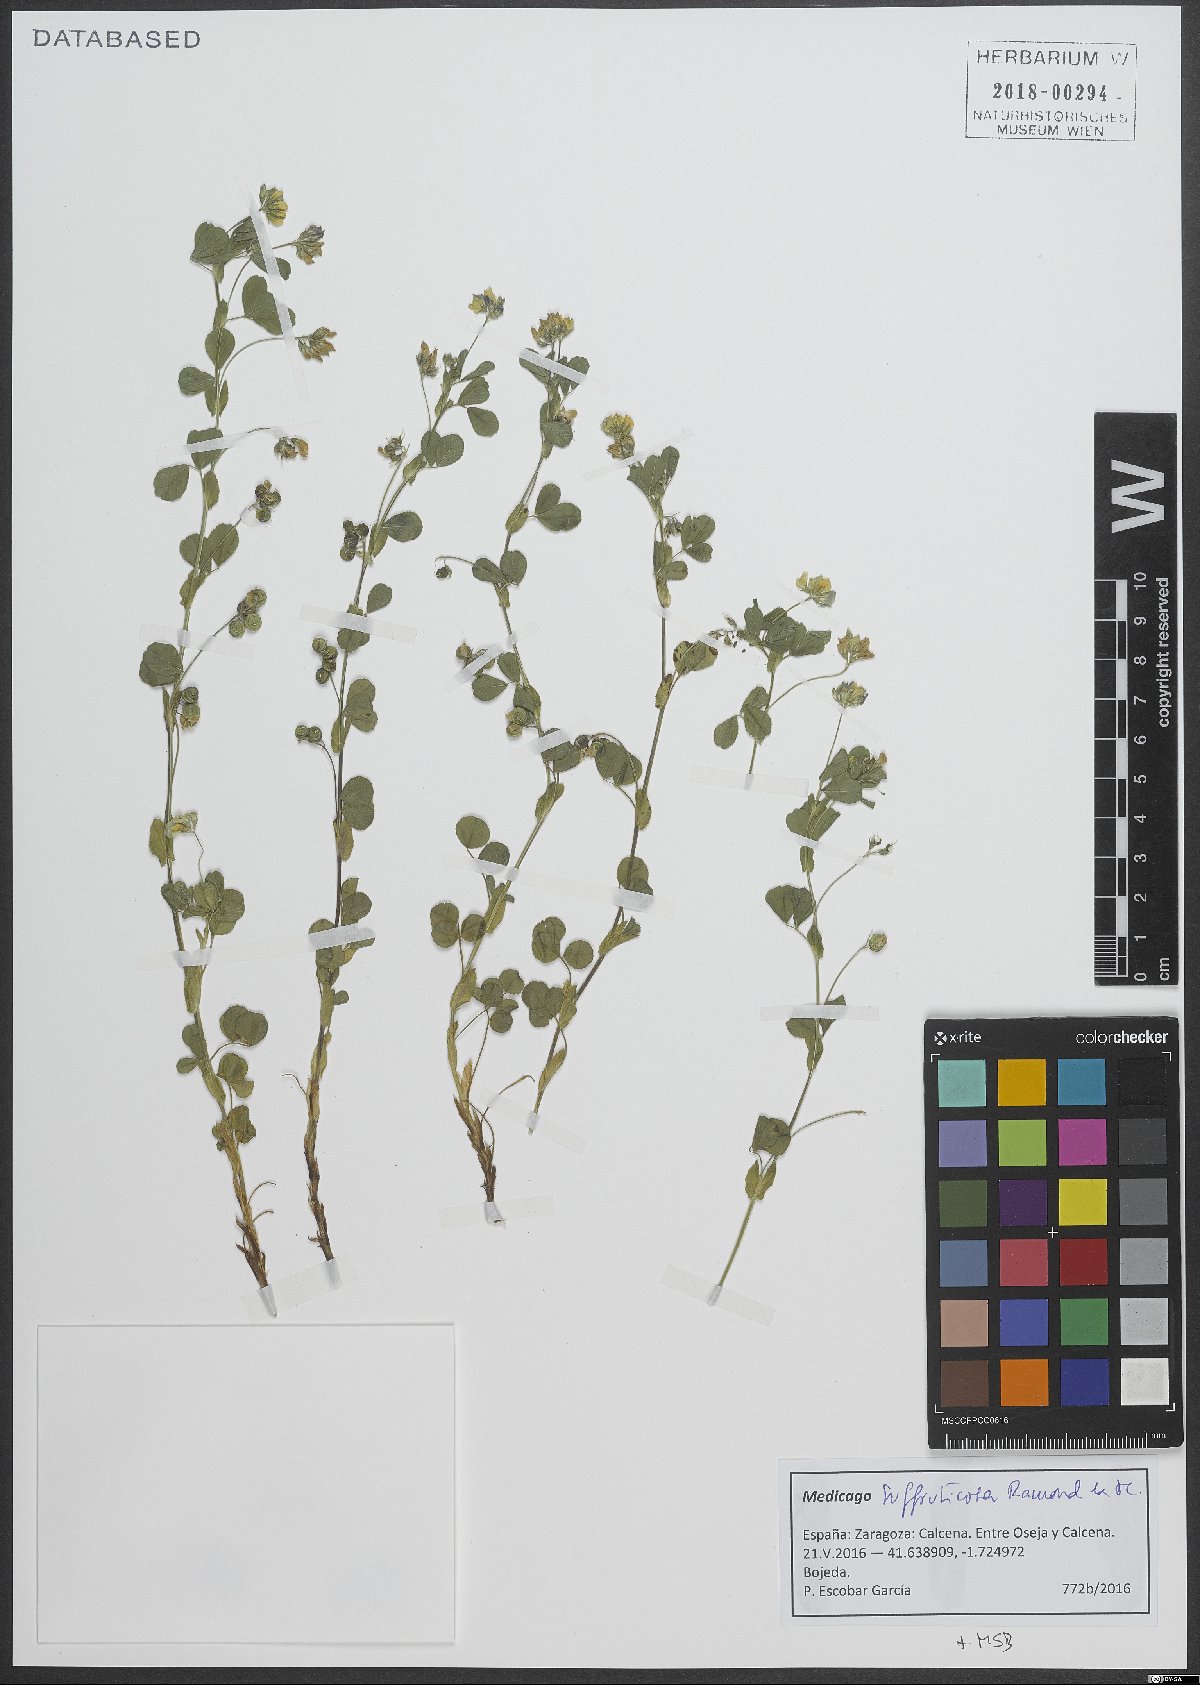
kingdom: Plantae
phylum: Tracheophyta
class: Magnoliopsida
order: Fabales
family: Fabaceae
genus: Medicago
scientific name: Medicago suffruticosa
